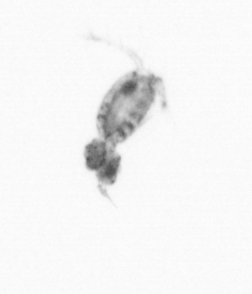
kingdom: Animalia
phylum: Arthropoda
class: Copepoda
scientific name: Copepoda
